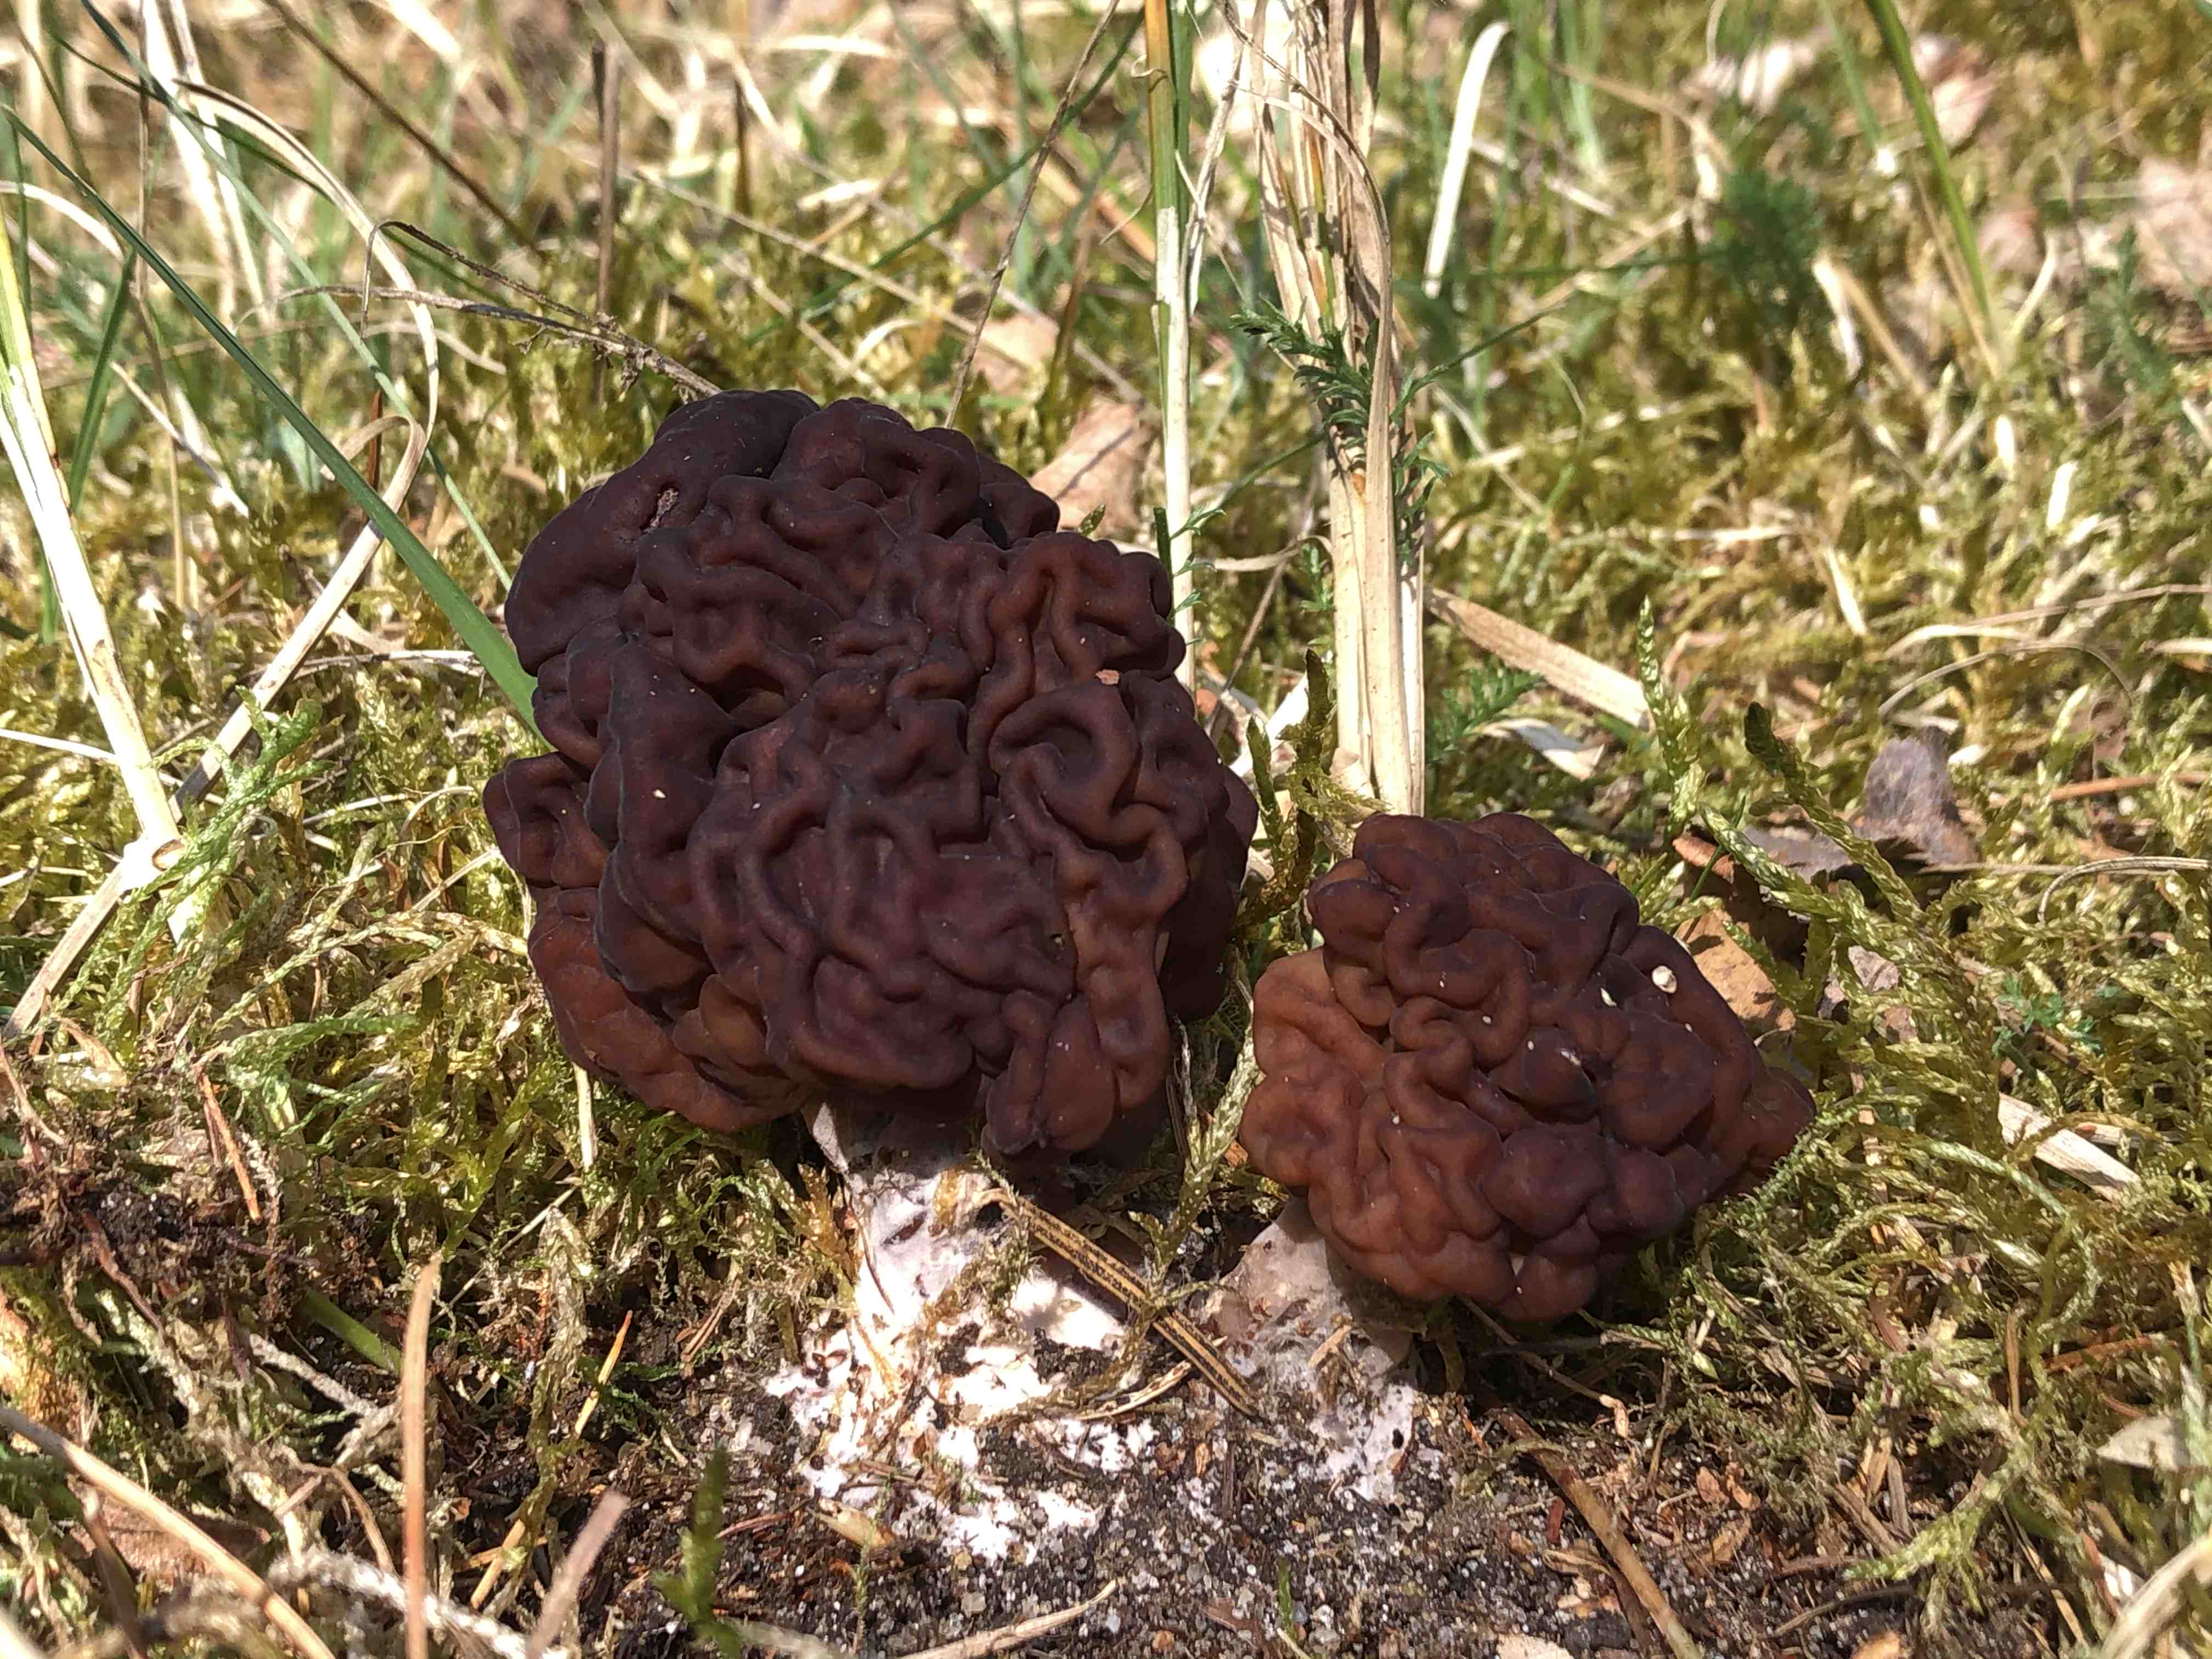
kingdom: Fungi
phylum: Ascomycota
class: Pezizomycetes
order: Pezizales
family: Discinaceae
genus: Gyromitra
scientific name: Gyromitra esculenta
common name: ægte stenmorkel
